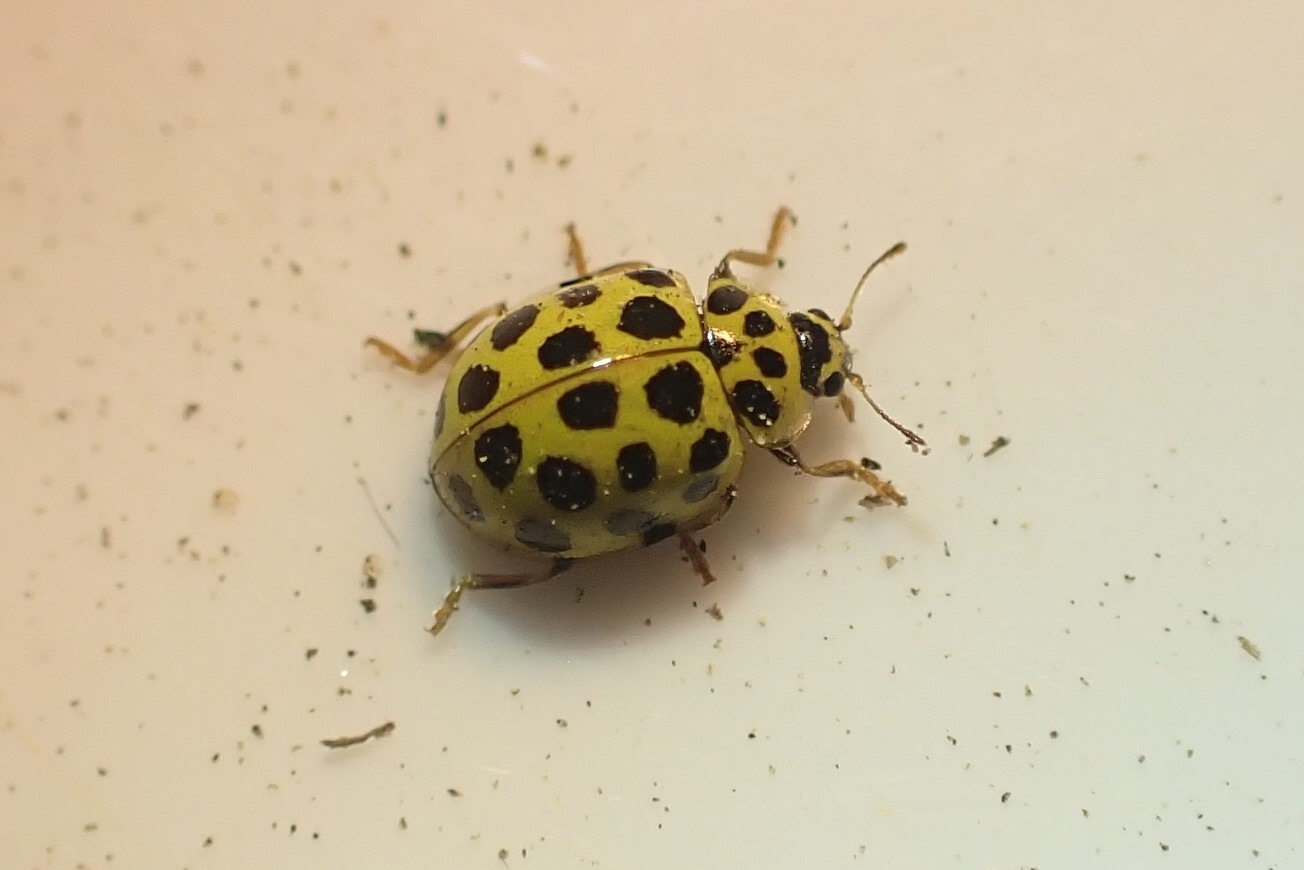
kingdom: Animalia
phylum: Arthropoda
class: Insecta
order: Coleoptera
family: Coccinellidae
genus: Psyllobora
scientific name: Psyllobora vigintiduopunctata
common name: Toogtyveplettet mariehøne
